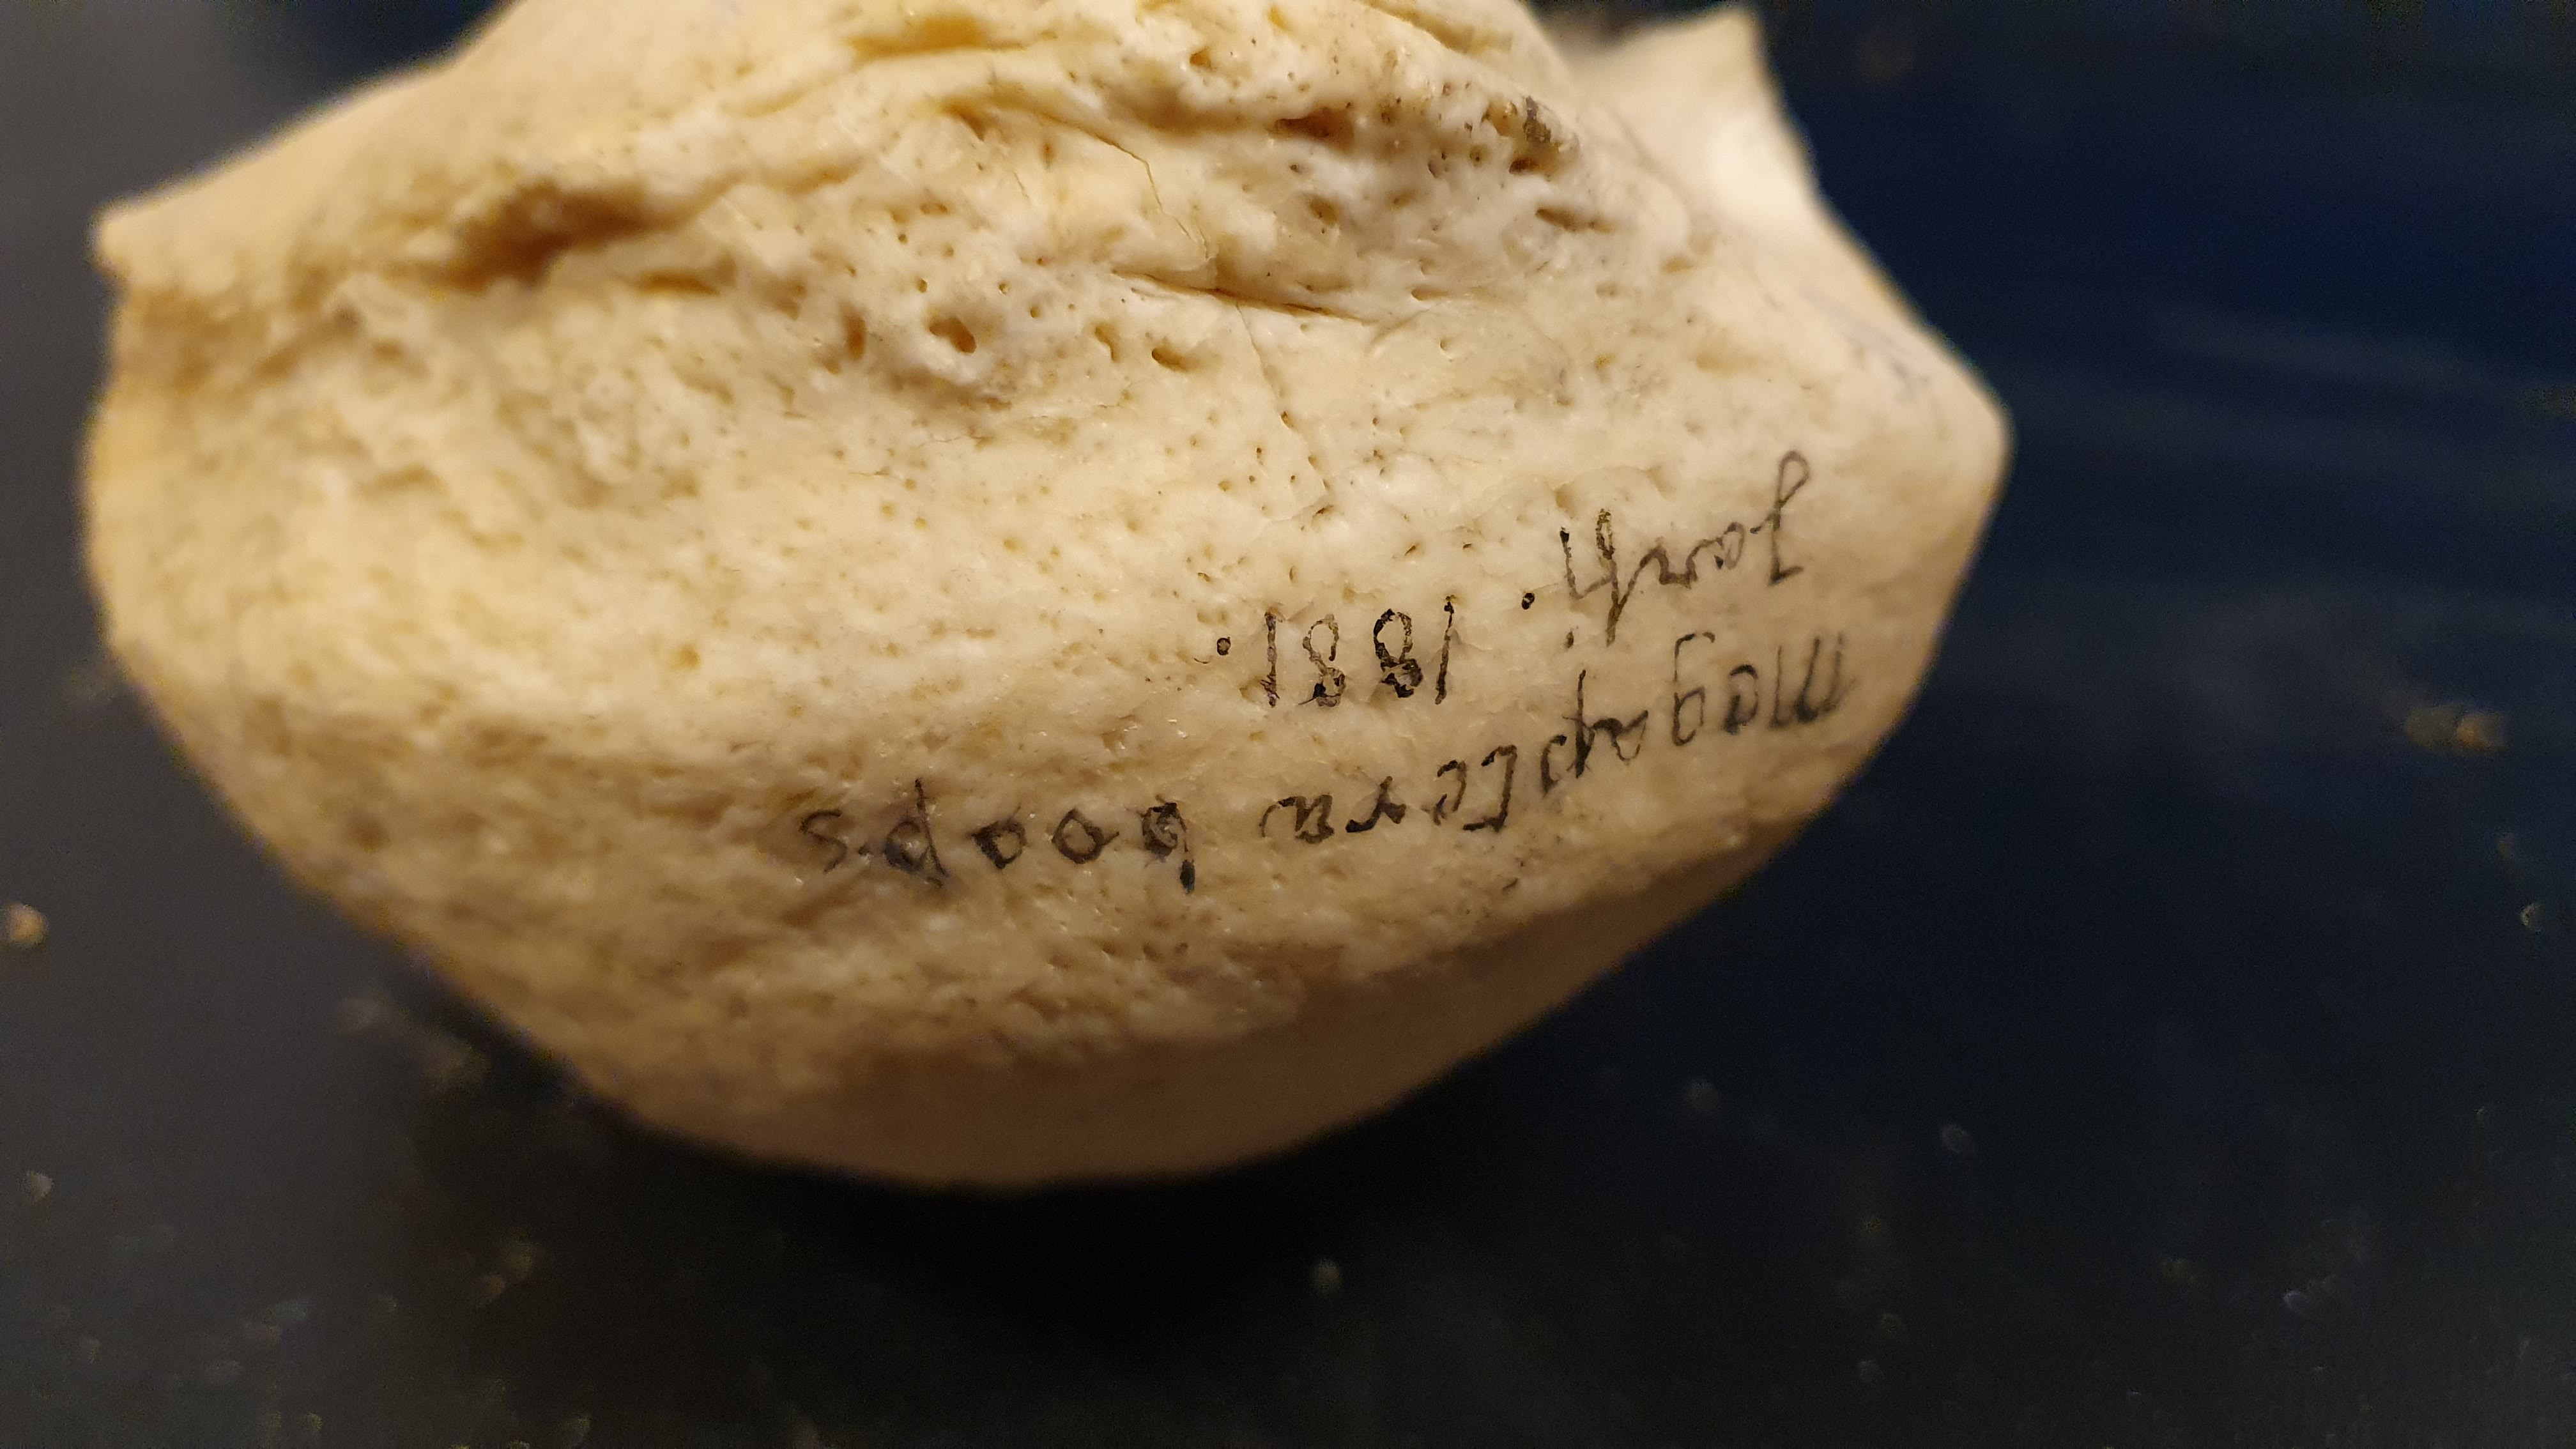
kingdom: Animalia
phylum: Chordata
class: Mammalia
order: Cetacea
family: Balaenopteridae
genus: Megaptera
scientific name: Megaptera novaeangliae
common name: Humpback whale
